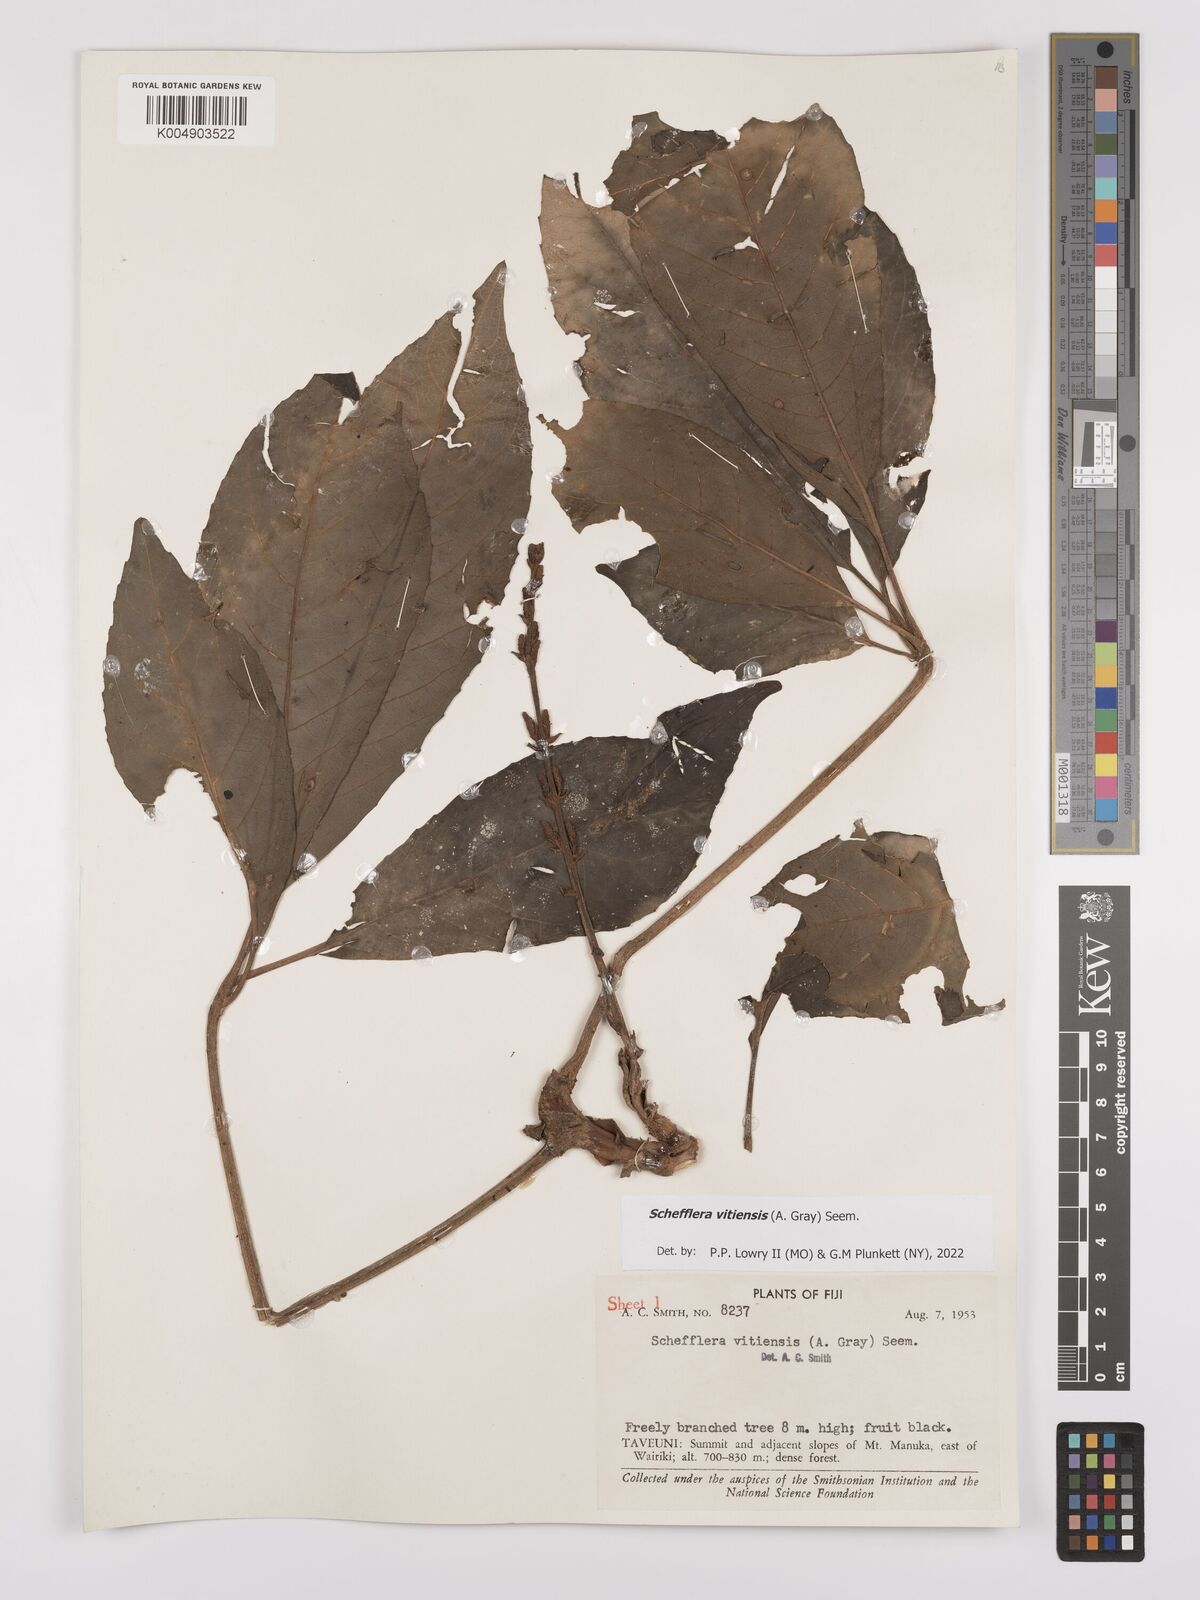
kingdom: Plantae
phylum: Tracheophyta
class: Magnoliopsida
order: Apiales
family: Araliaceae
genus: Schefflera
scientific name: Schefflera vitiensis
